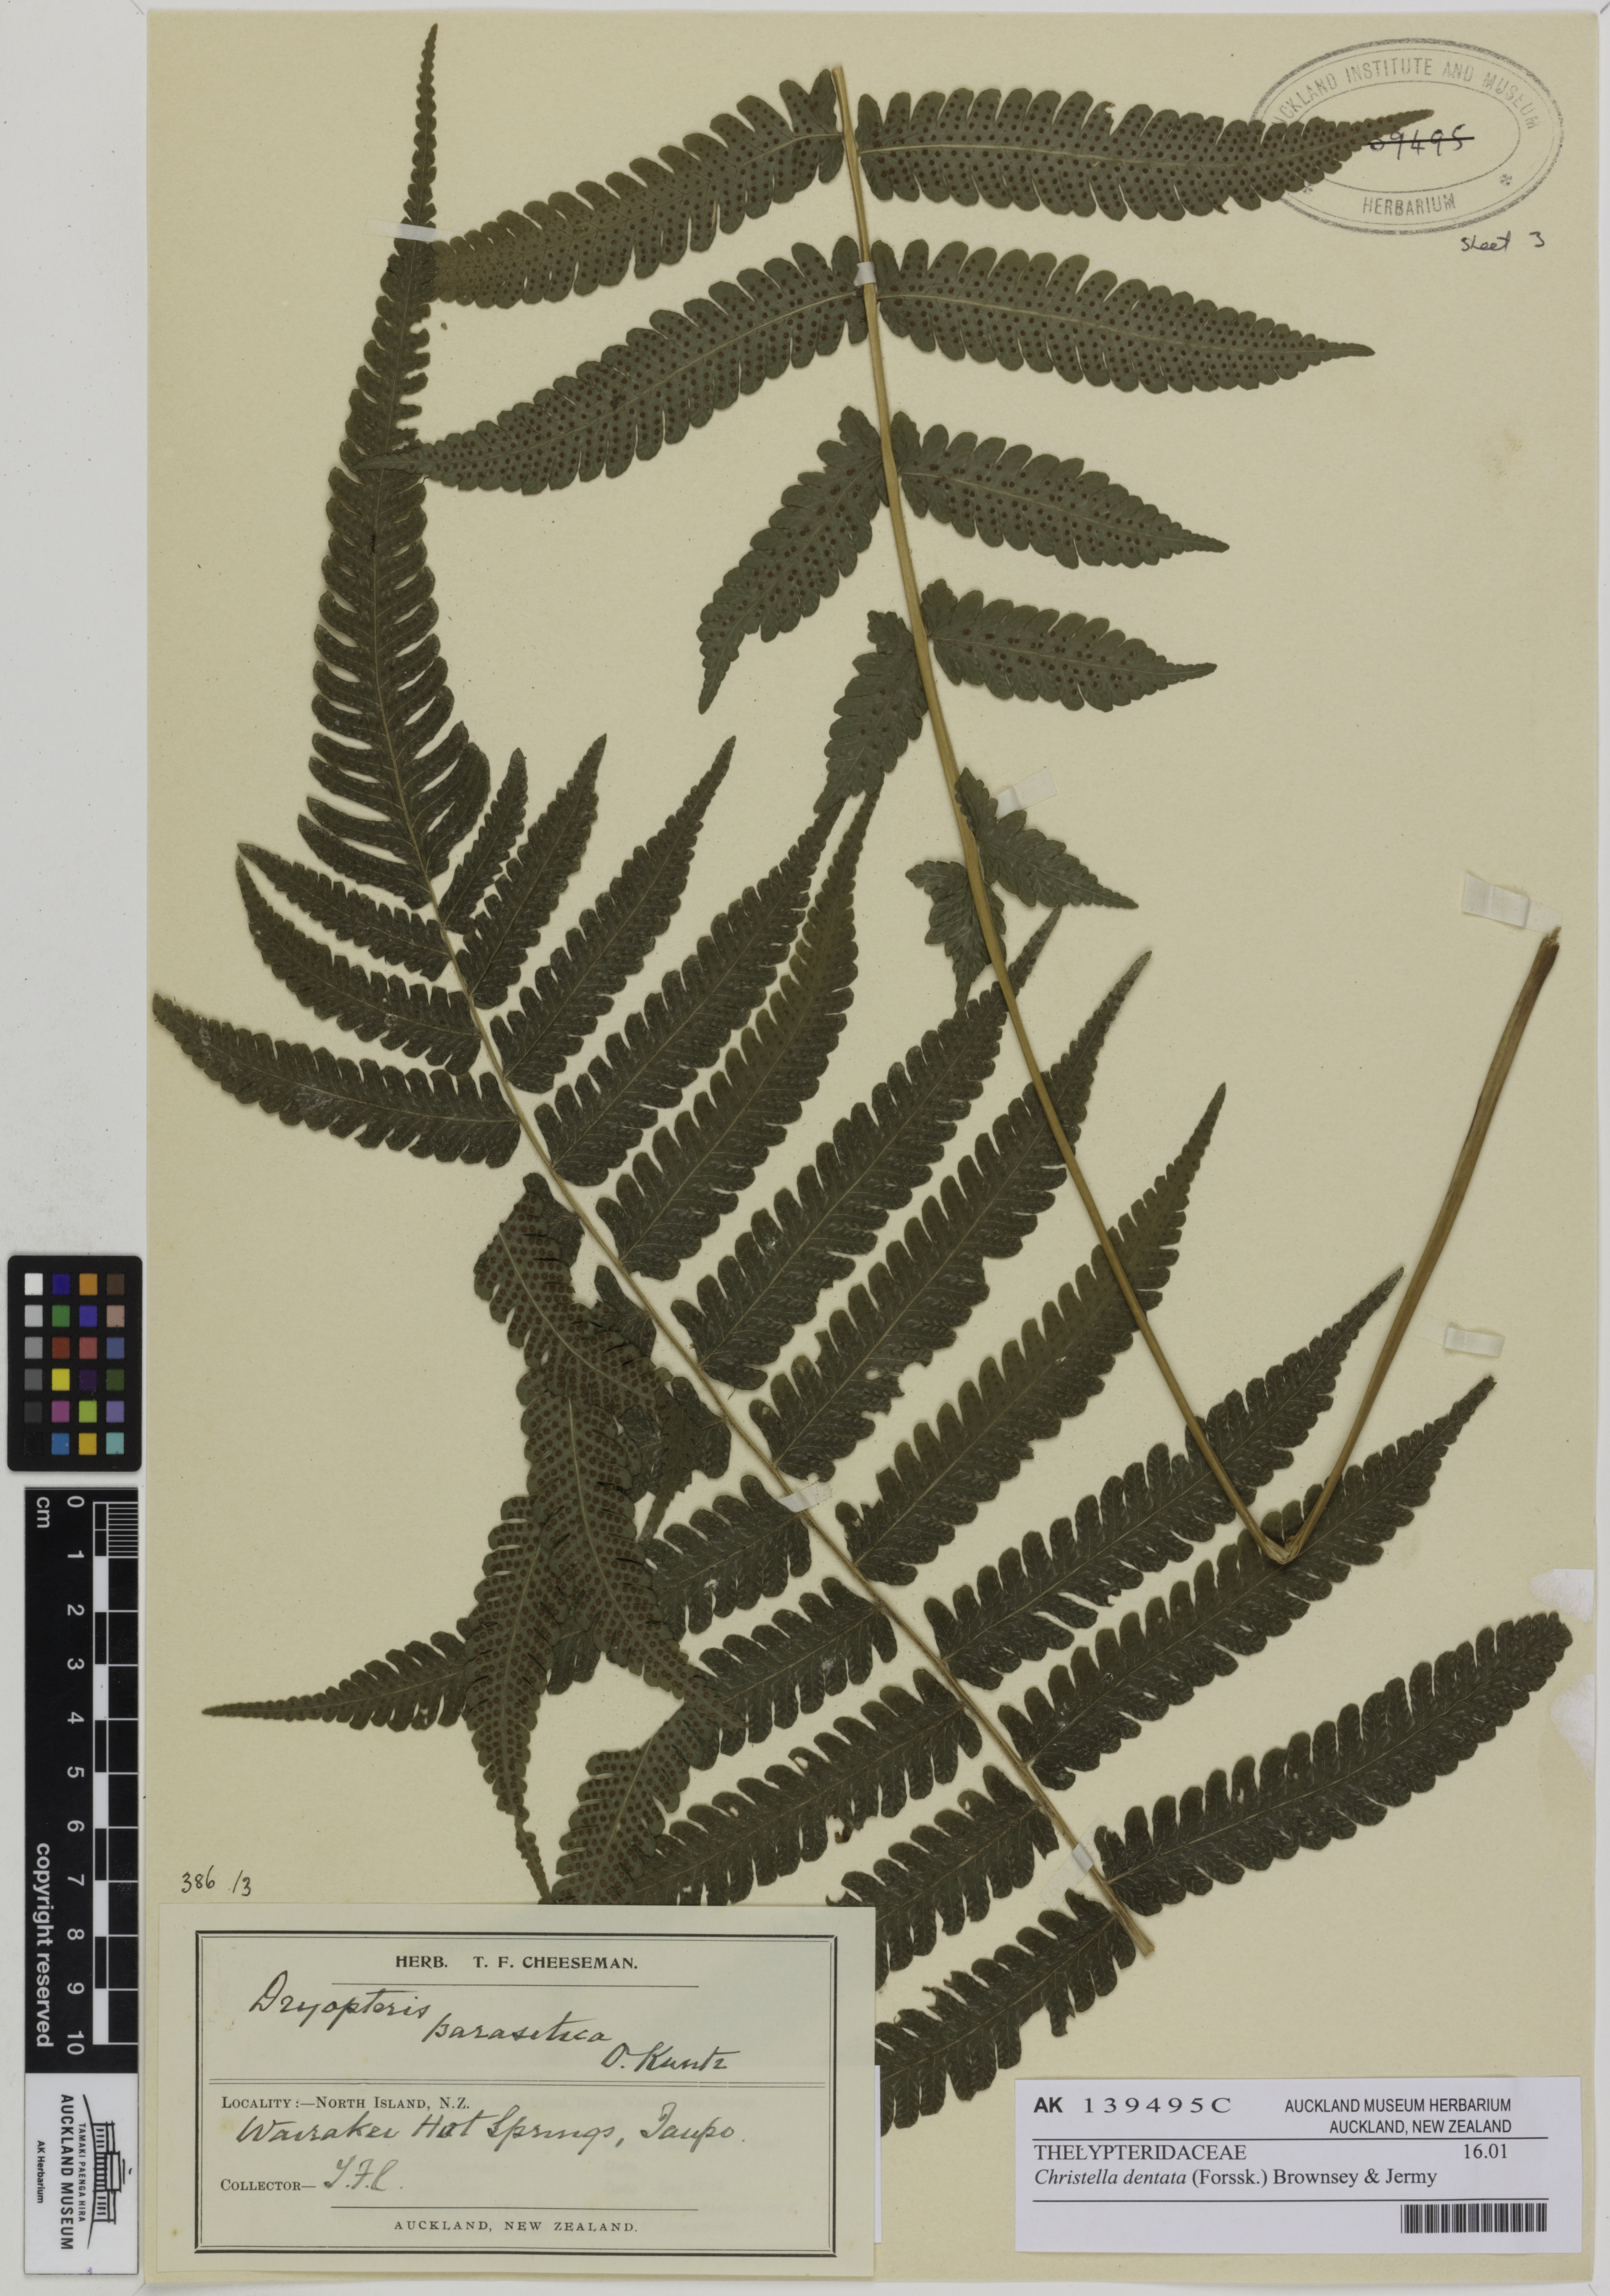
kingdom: Plantae
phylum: Tracheophyta
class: Polypodiopsida
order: Polypodiales
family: Thelypteridaceae
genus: Christella
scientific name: Christella dentata
